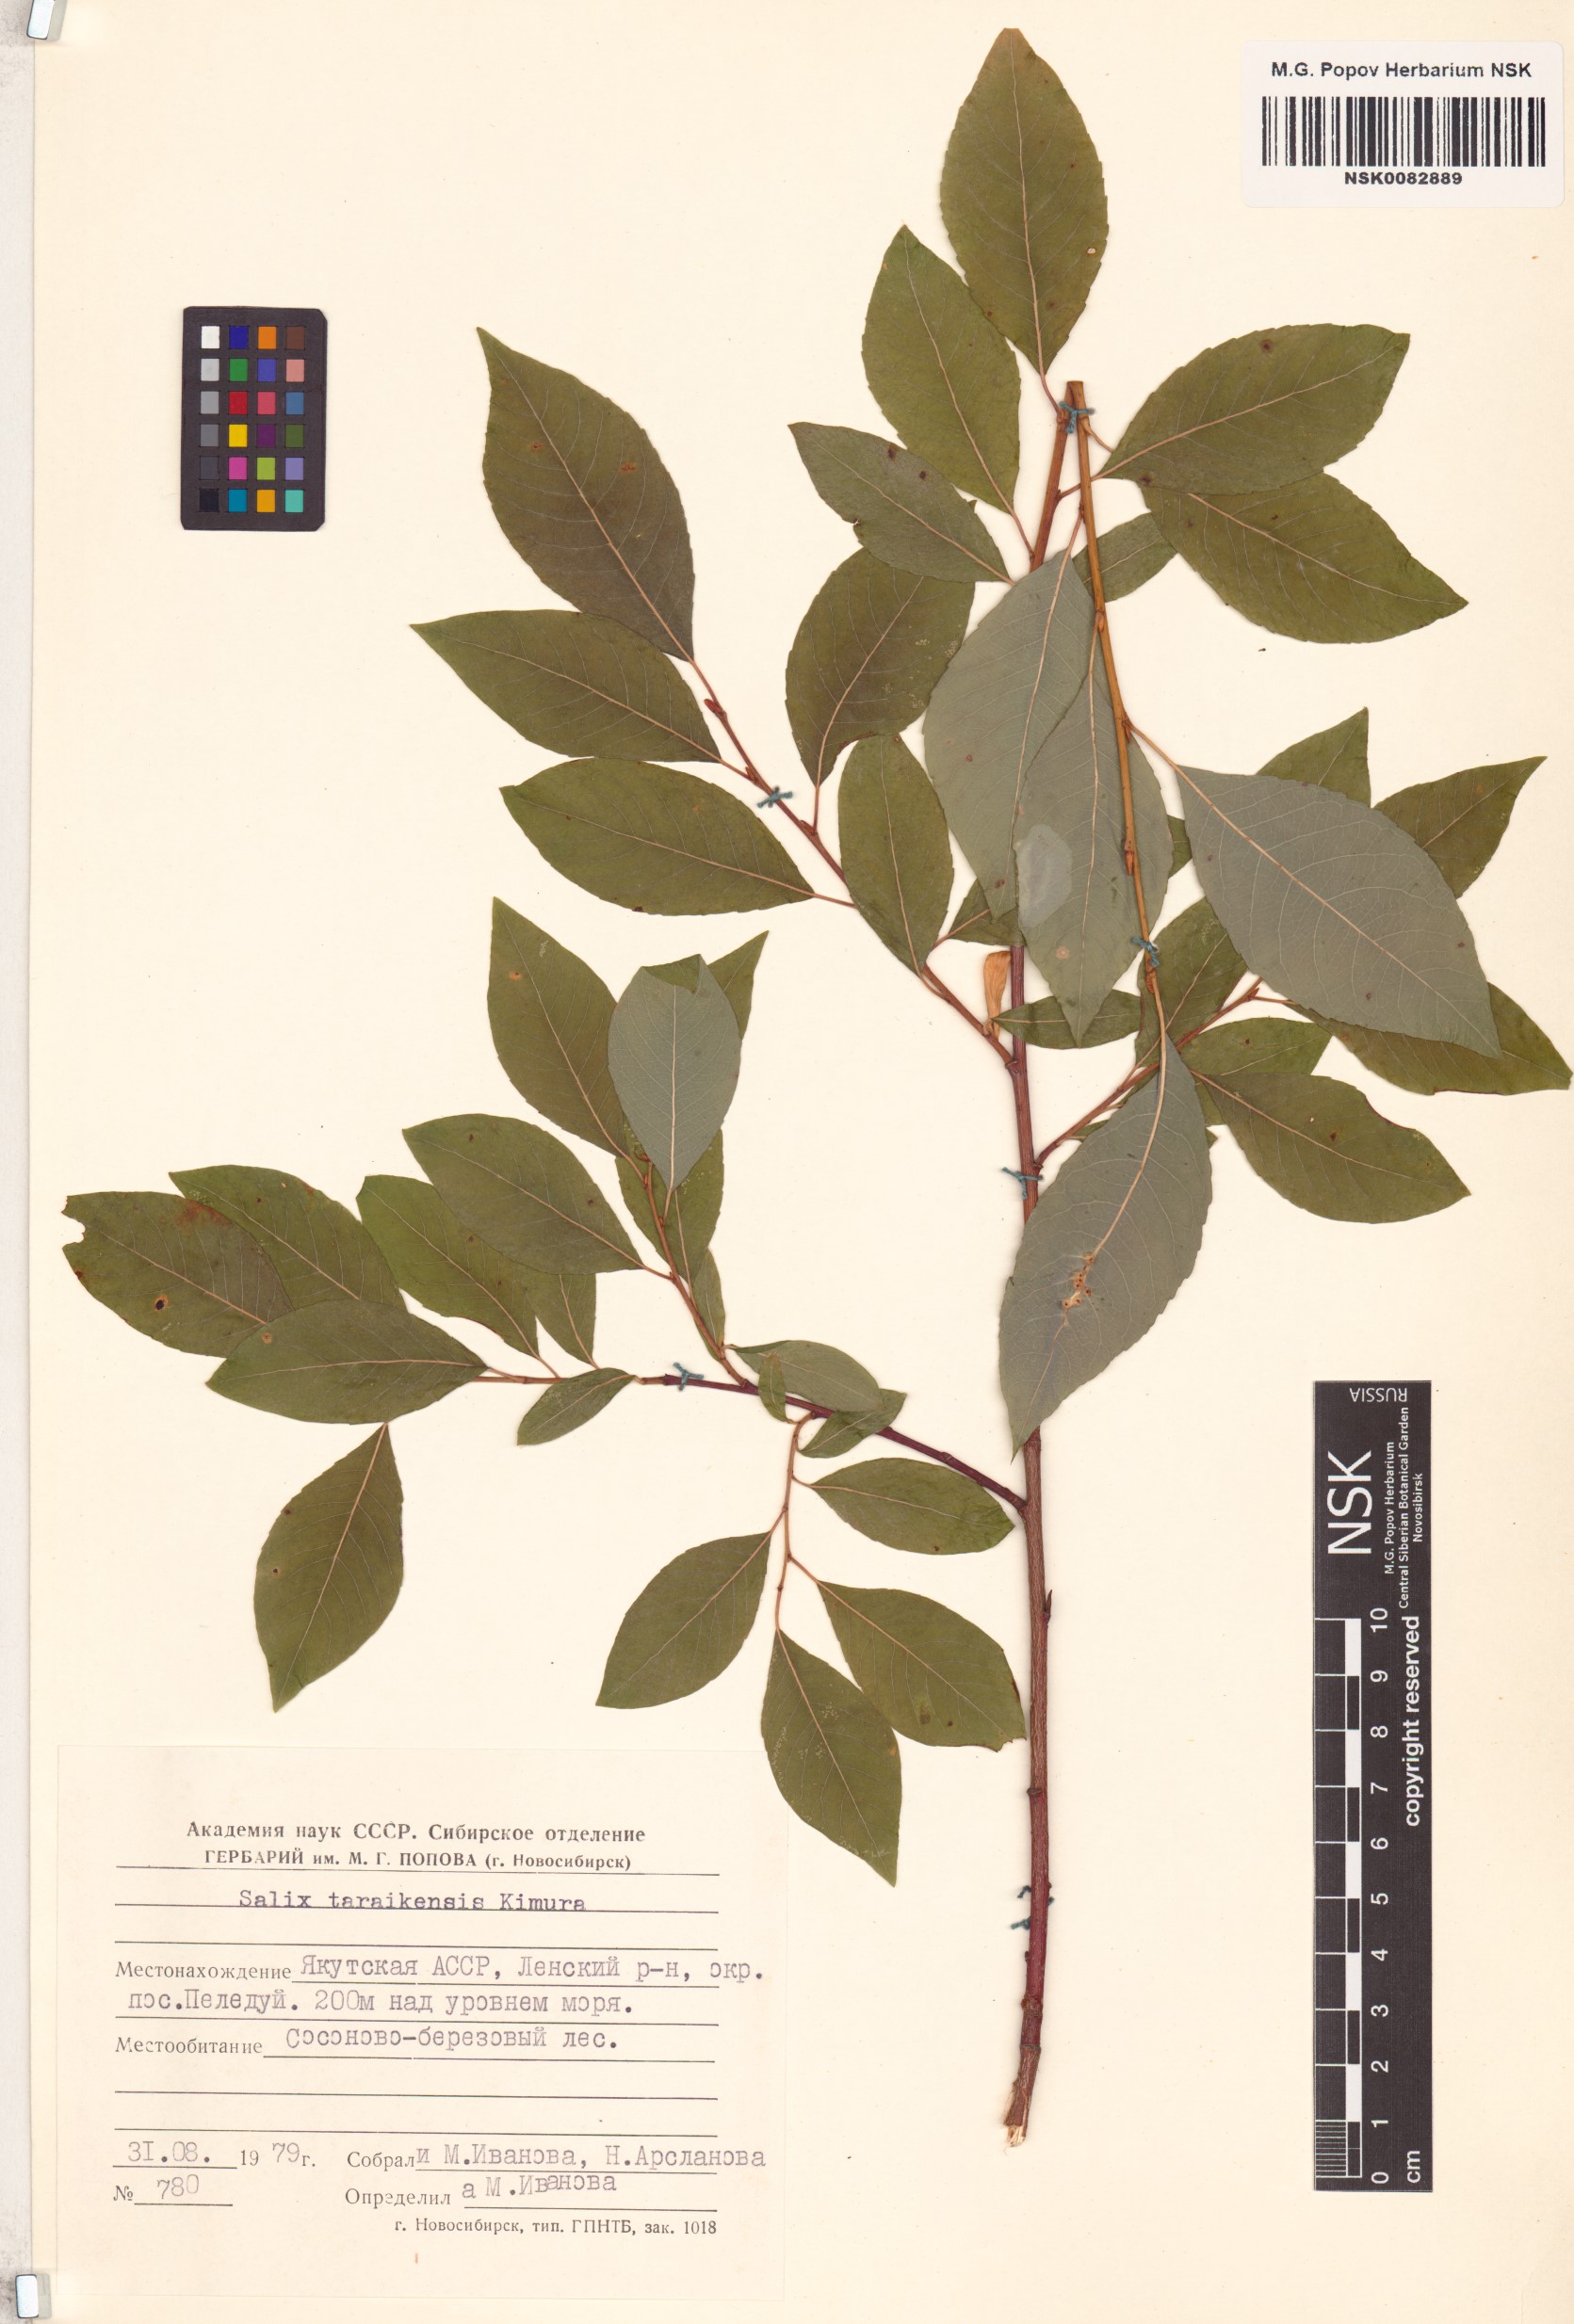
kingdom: Plantae
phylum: Tracheophyta
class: Magnoliopsida
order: Malpighiales
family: Salicaceae
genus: Salix
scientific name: Salix taraikensis
